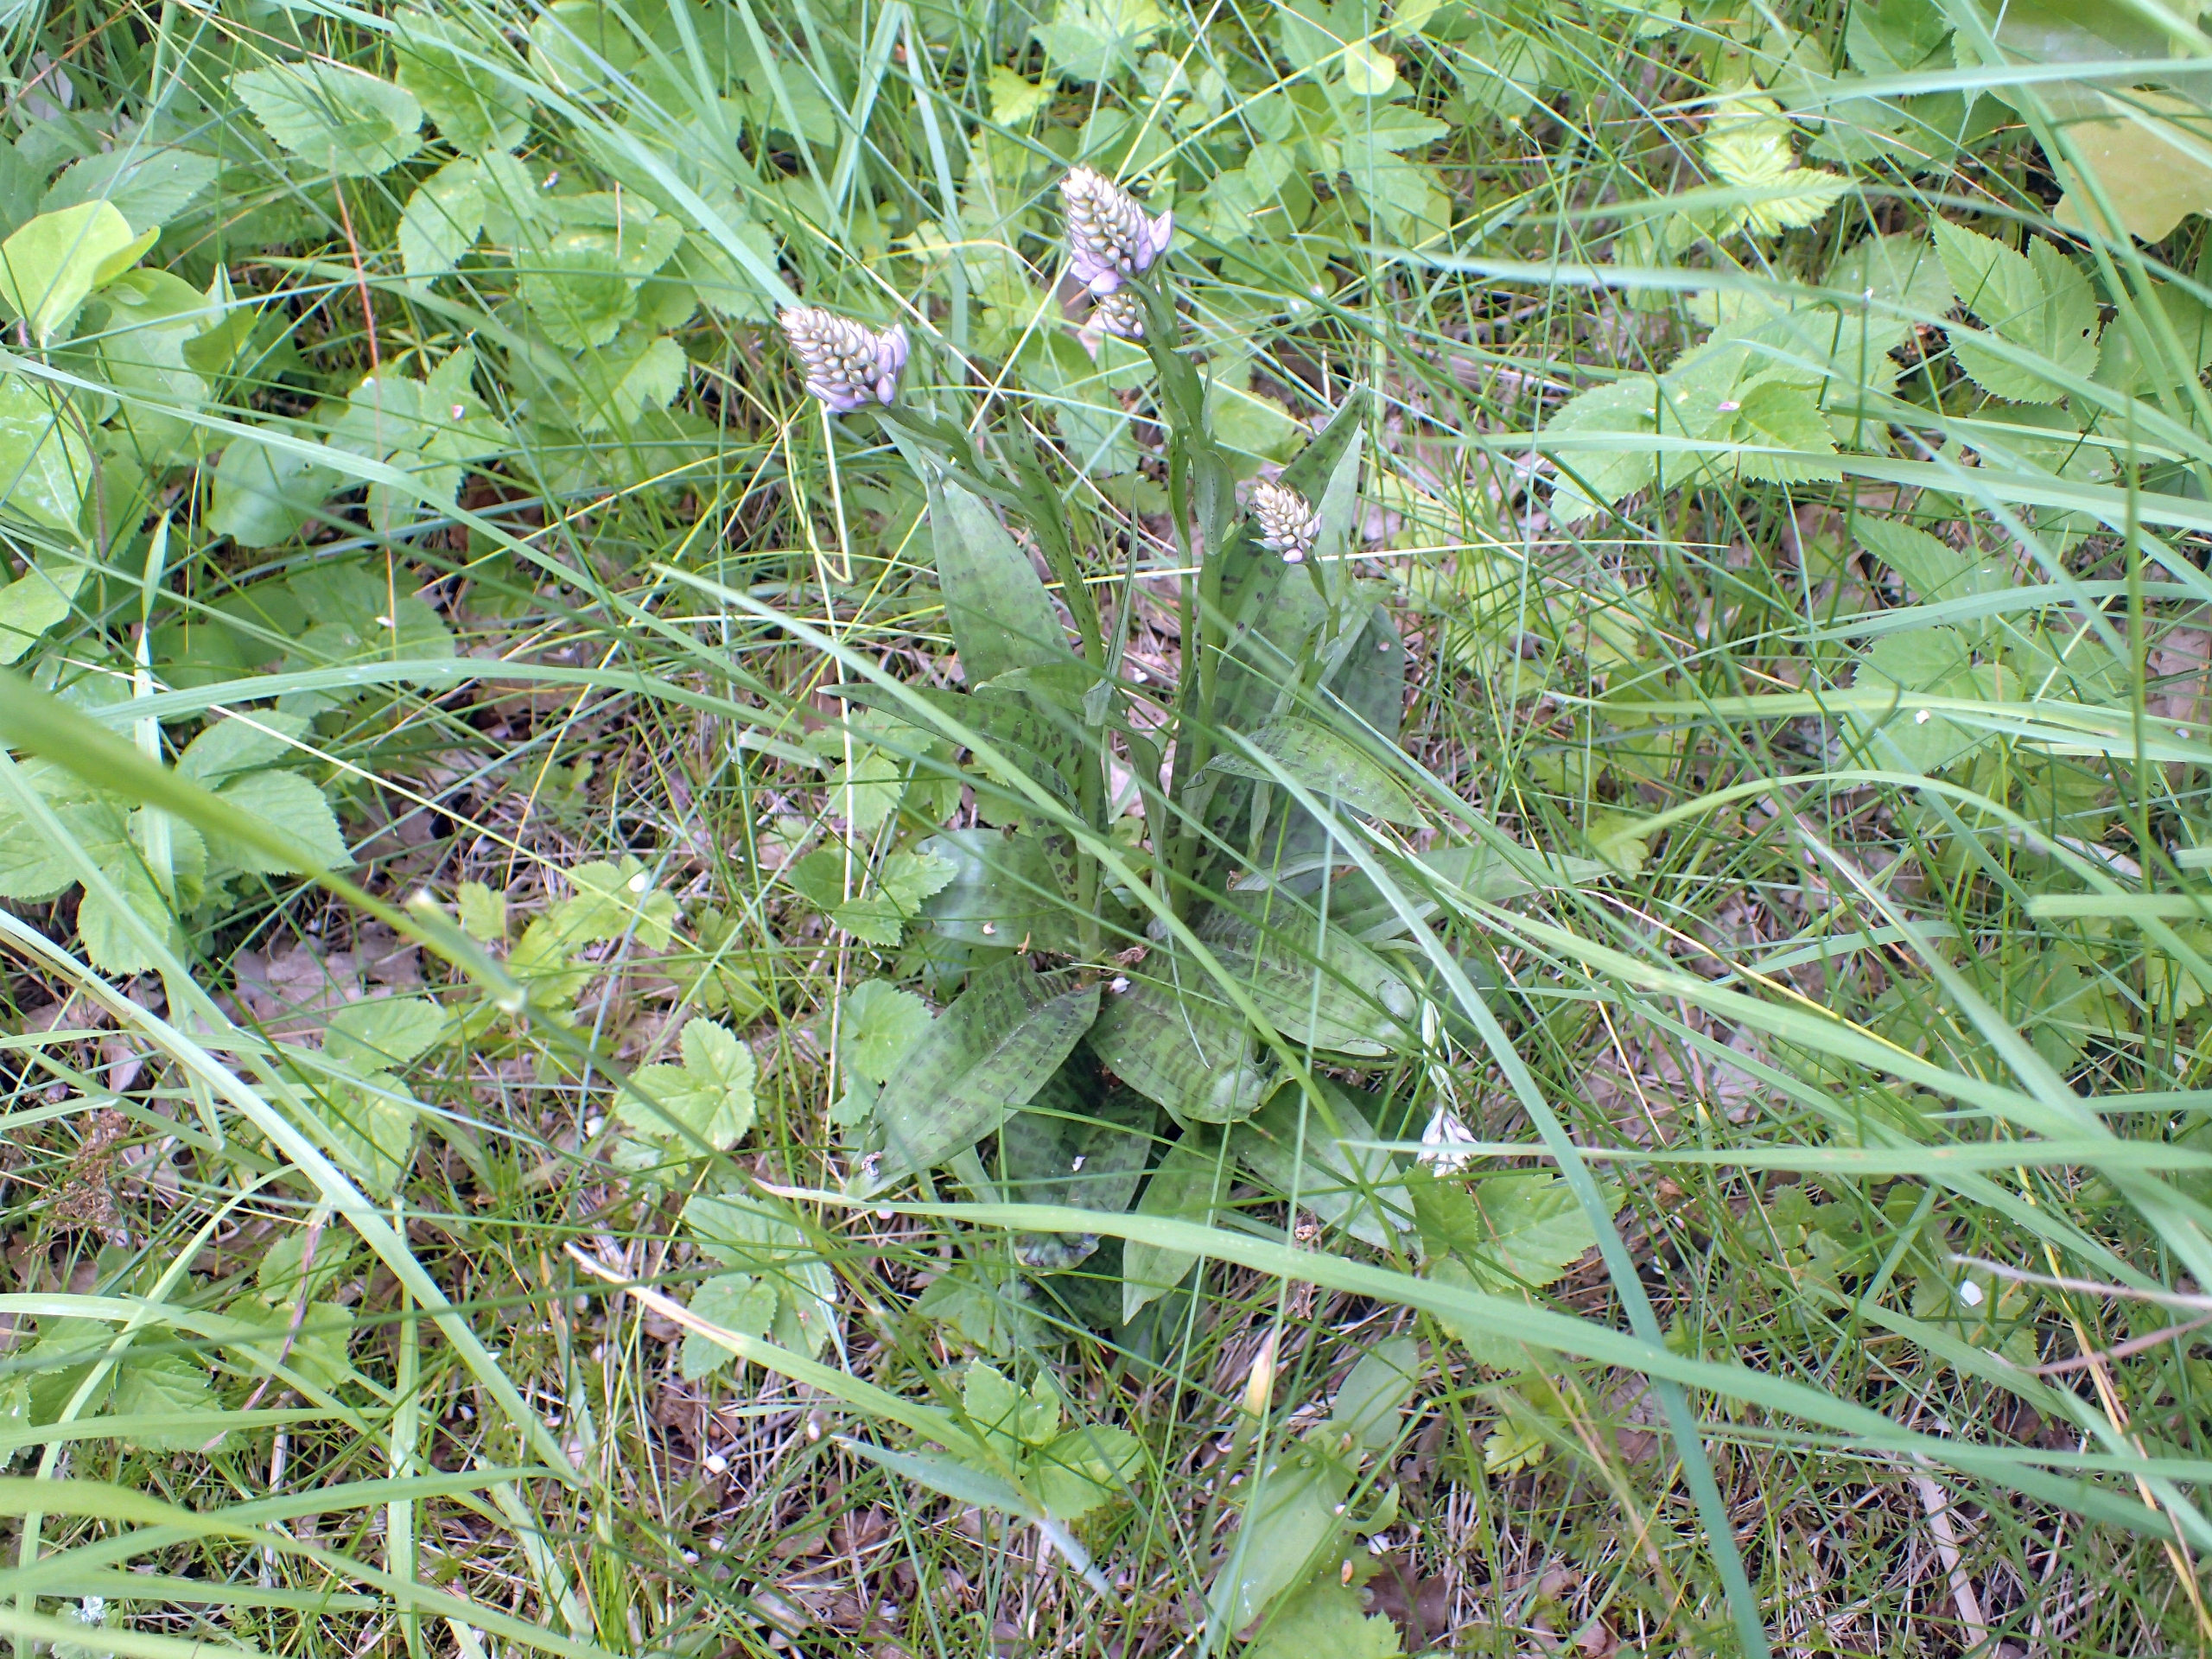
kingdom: Plantae
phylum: Tracheophyta
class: Liliopsida
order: Asparagales
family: Orchidaceae
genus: Dactylorhiza
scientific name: Dactylorhiza maculata
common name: Skov-gøgeurt
